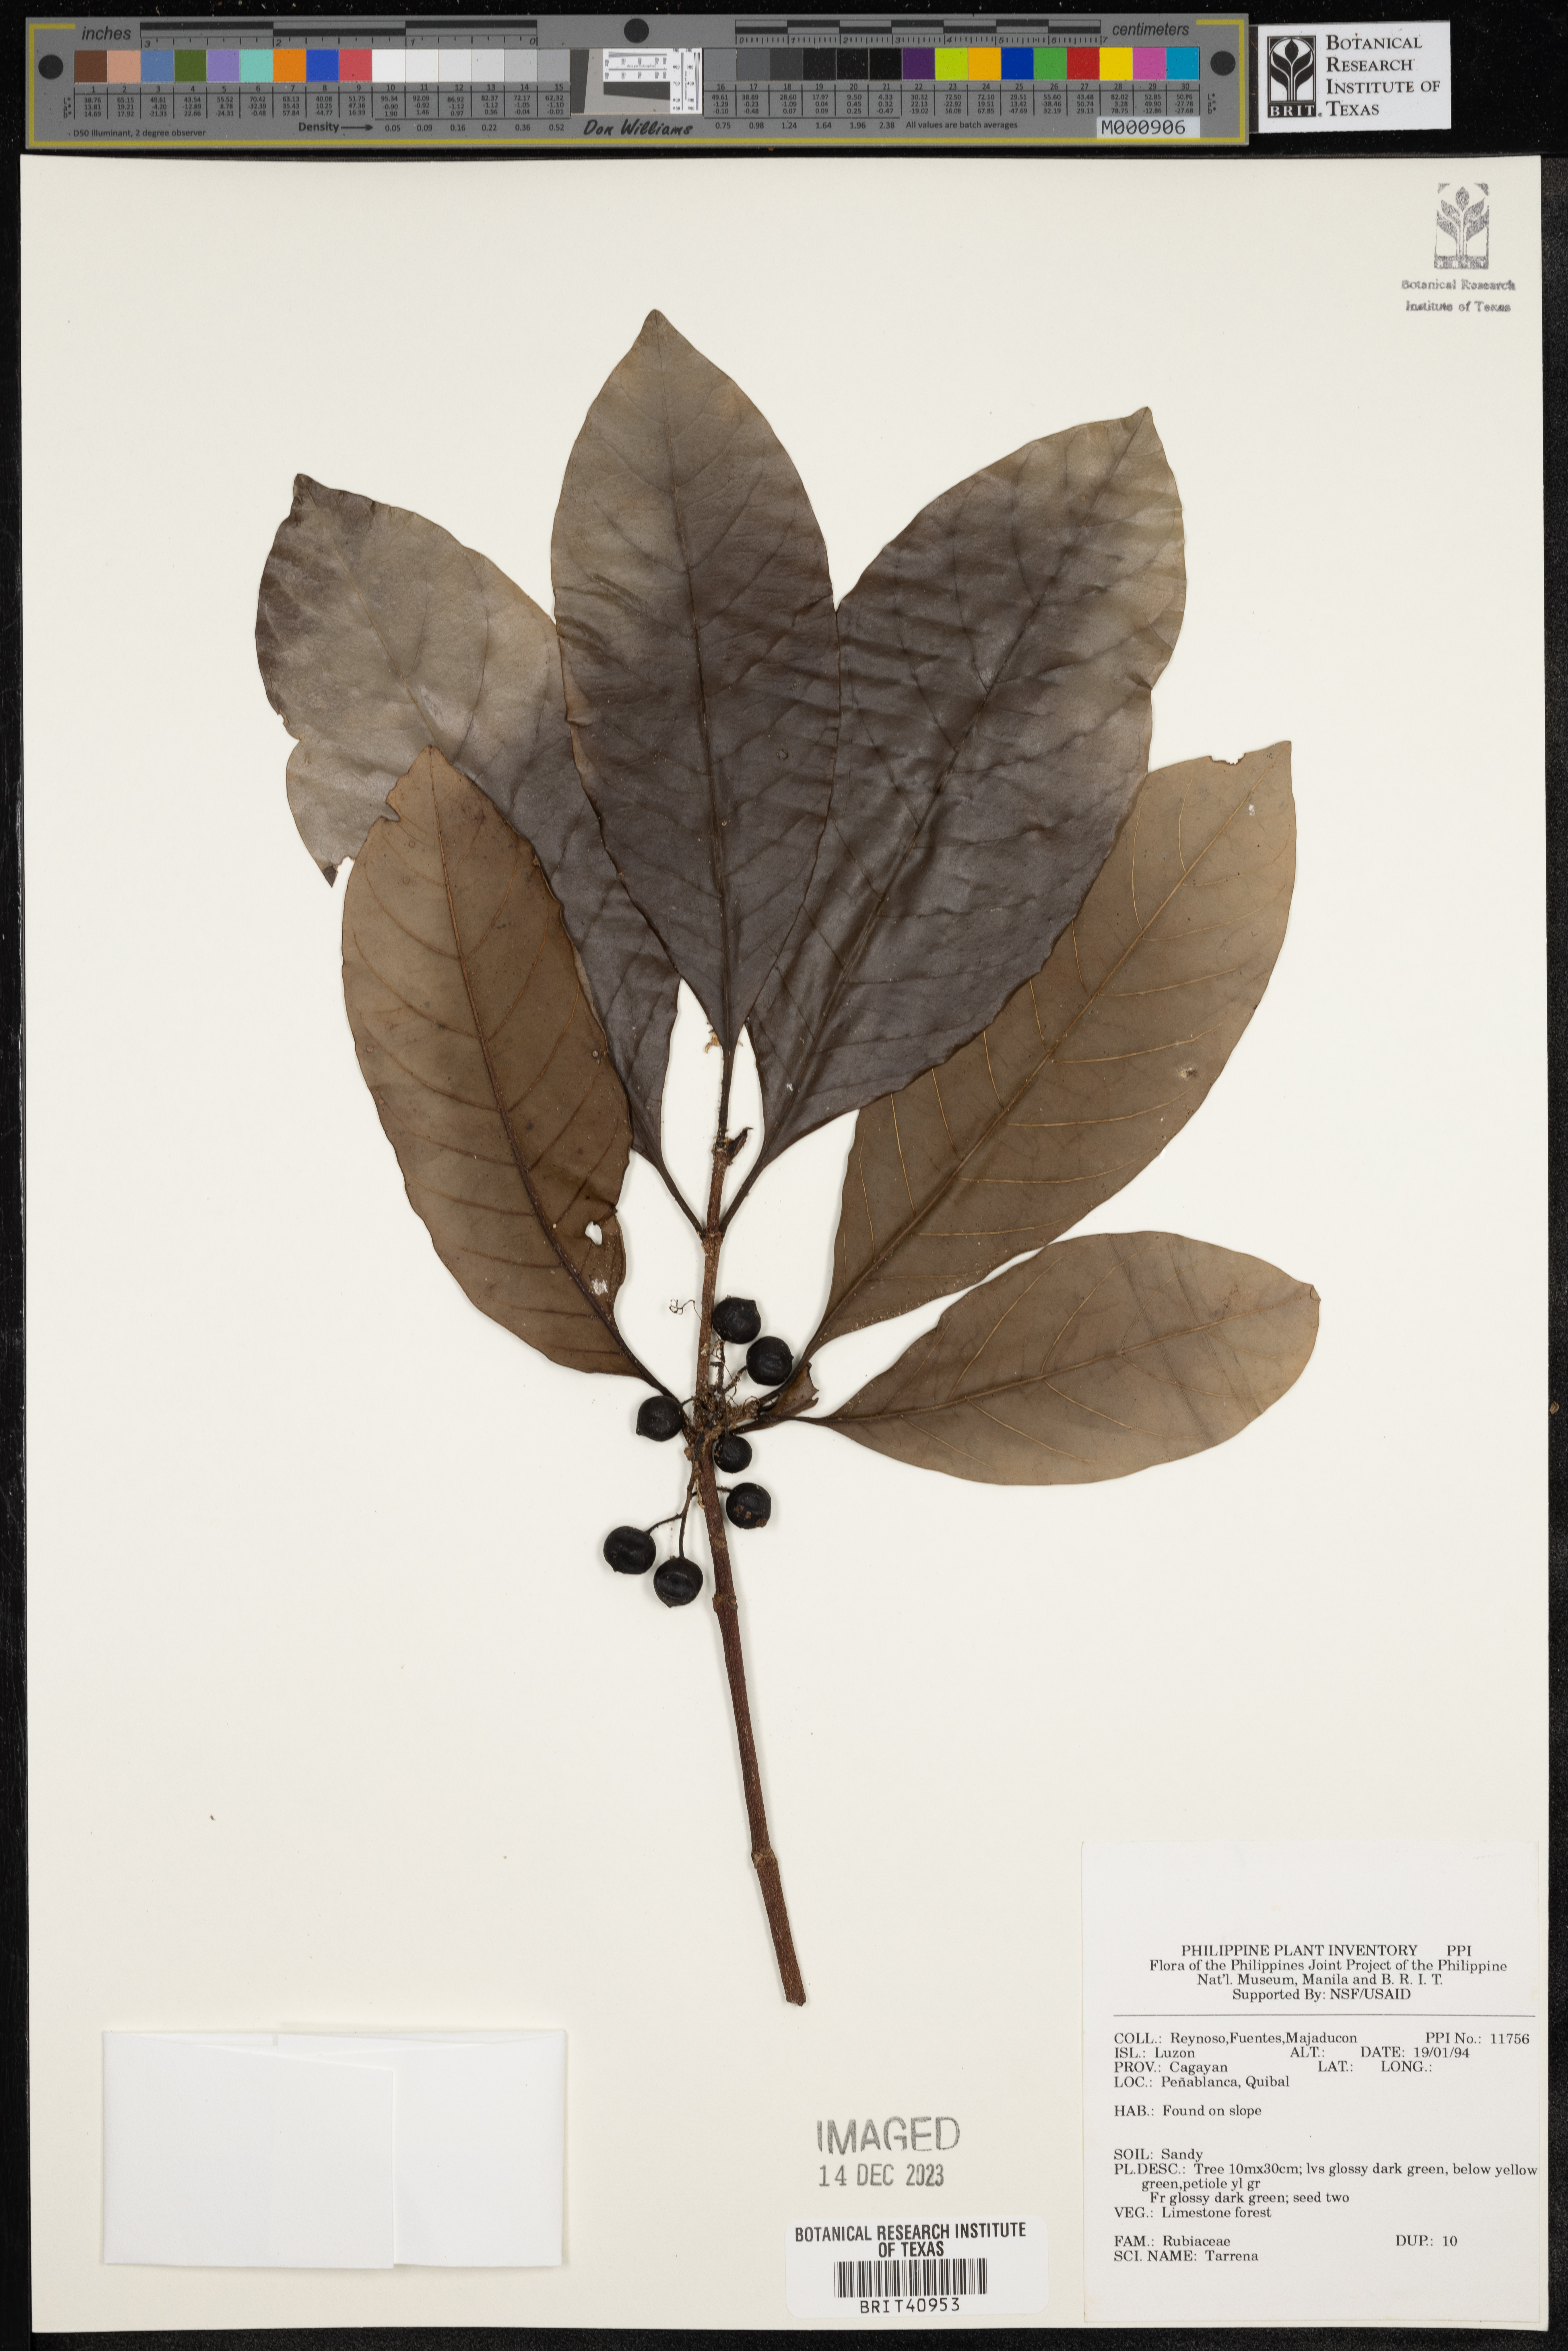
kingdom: Plantae
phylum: Tracheophyta
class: Magnoliopsida
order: Gentianales
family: Rubiaceae
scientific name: Rubiaceae
